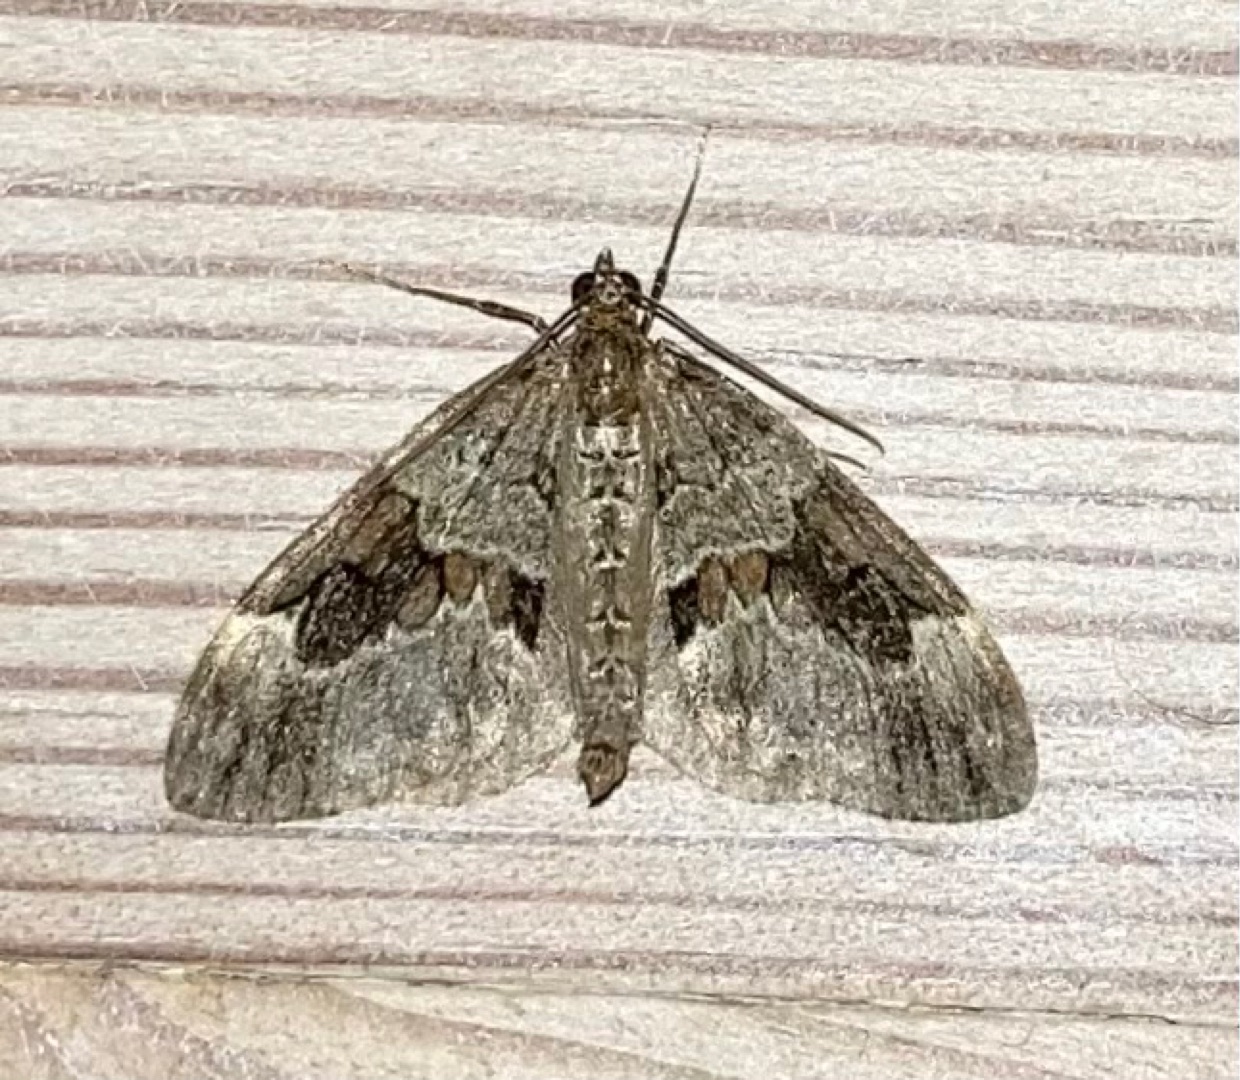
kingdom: Animalia
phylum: Arthropoda
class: Insecta
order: Lepidoptera
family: Geometridae
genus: Thera
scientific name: Thera obeliscata
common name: Grå fyrremåler
